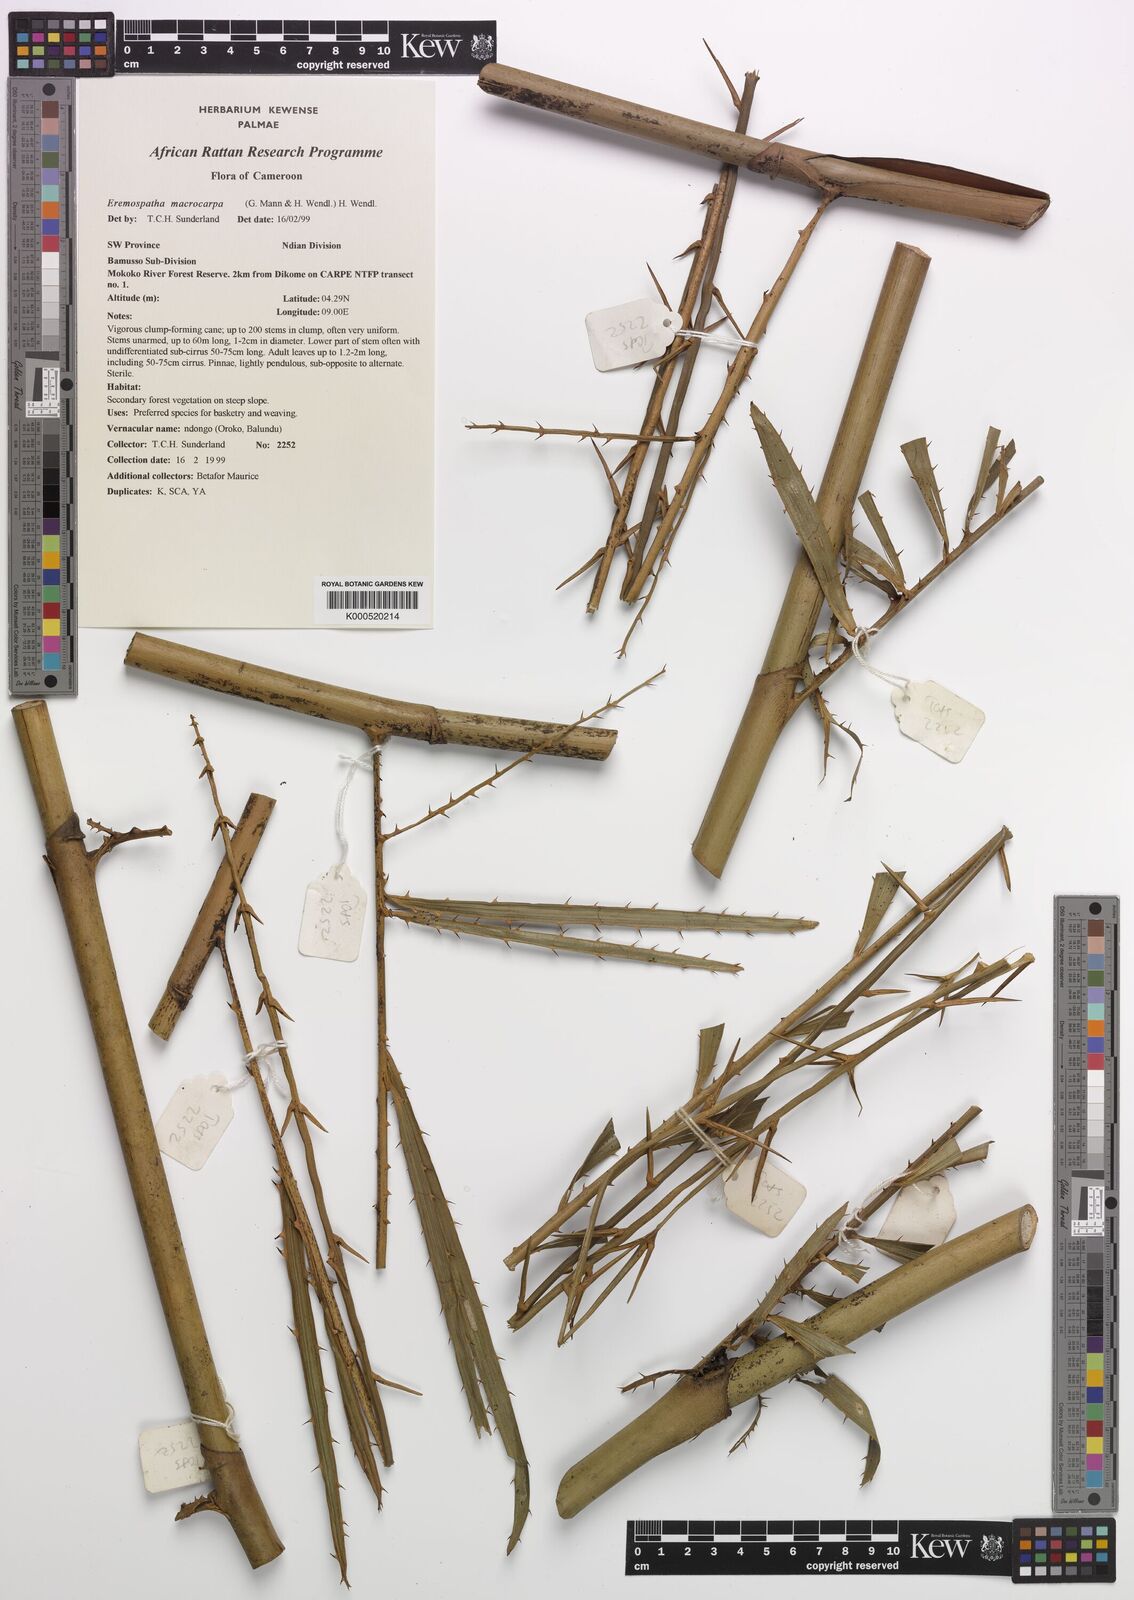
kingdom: Plantae
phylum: Tracheophyta
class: Liliopsida
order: Arecales
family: Arecaceae
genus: Eremospatha
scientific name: Eremospatha
